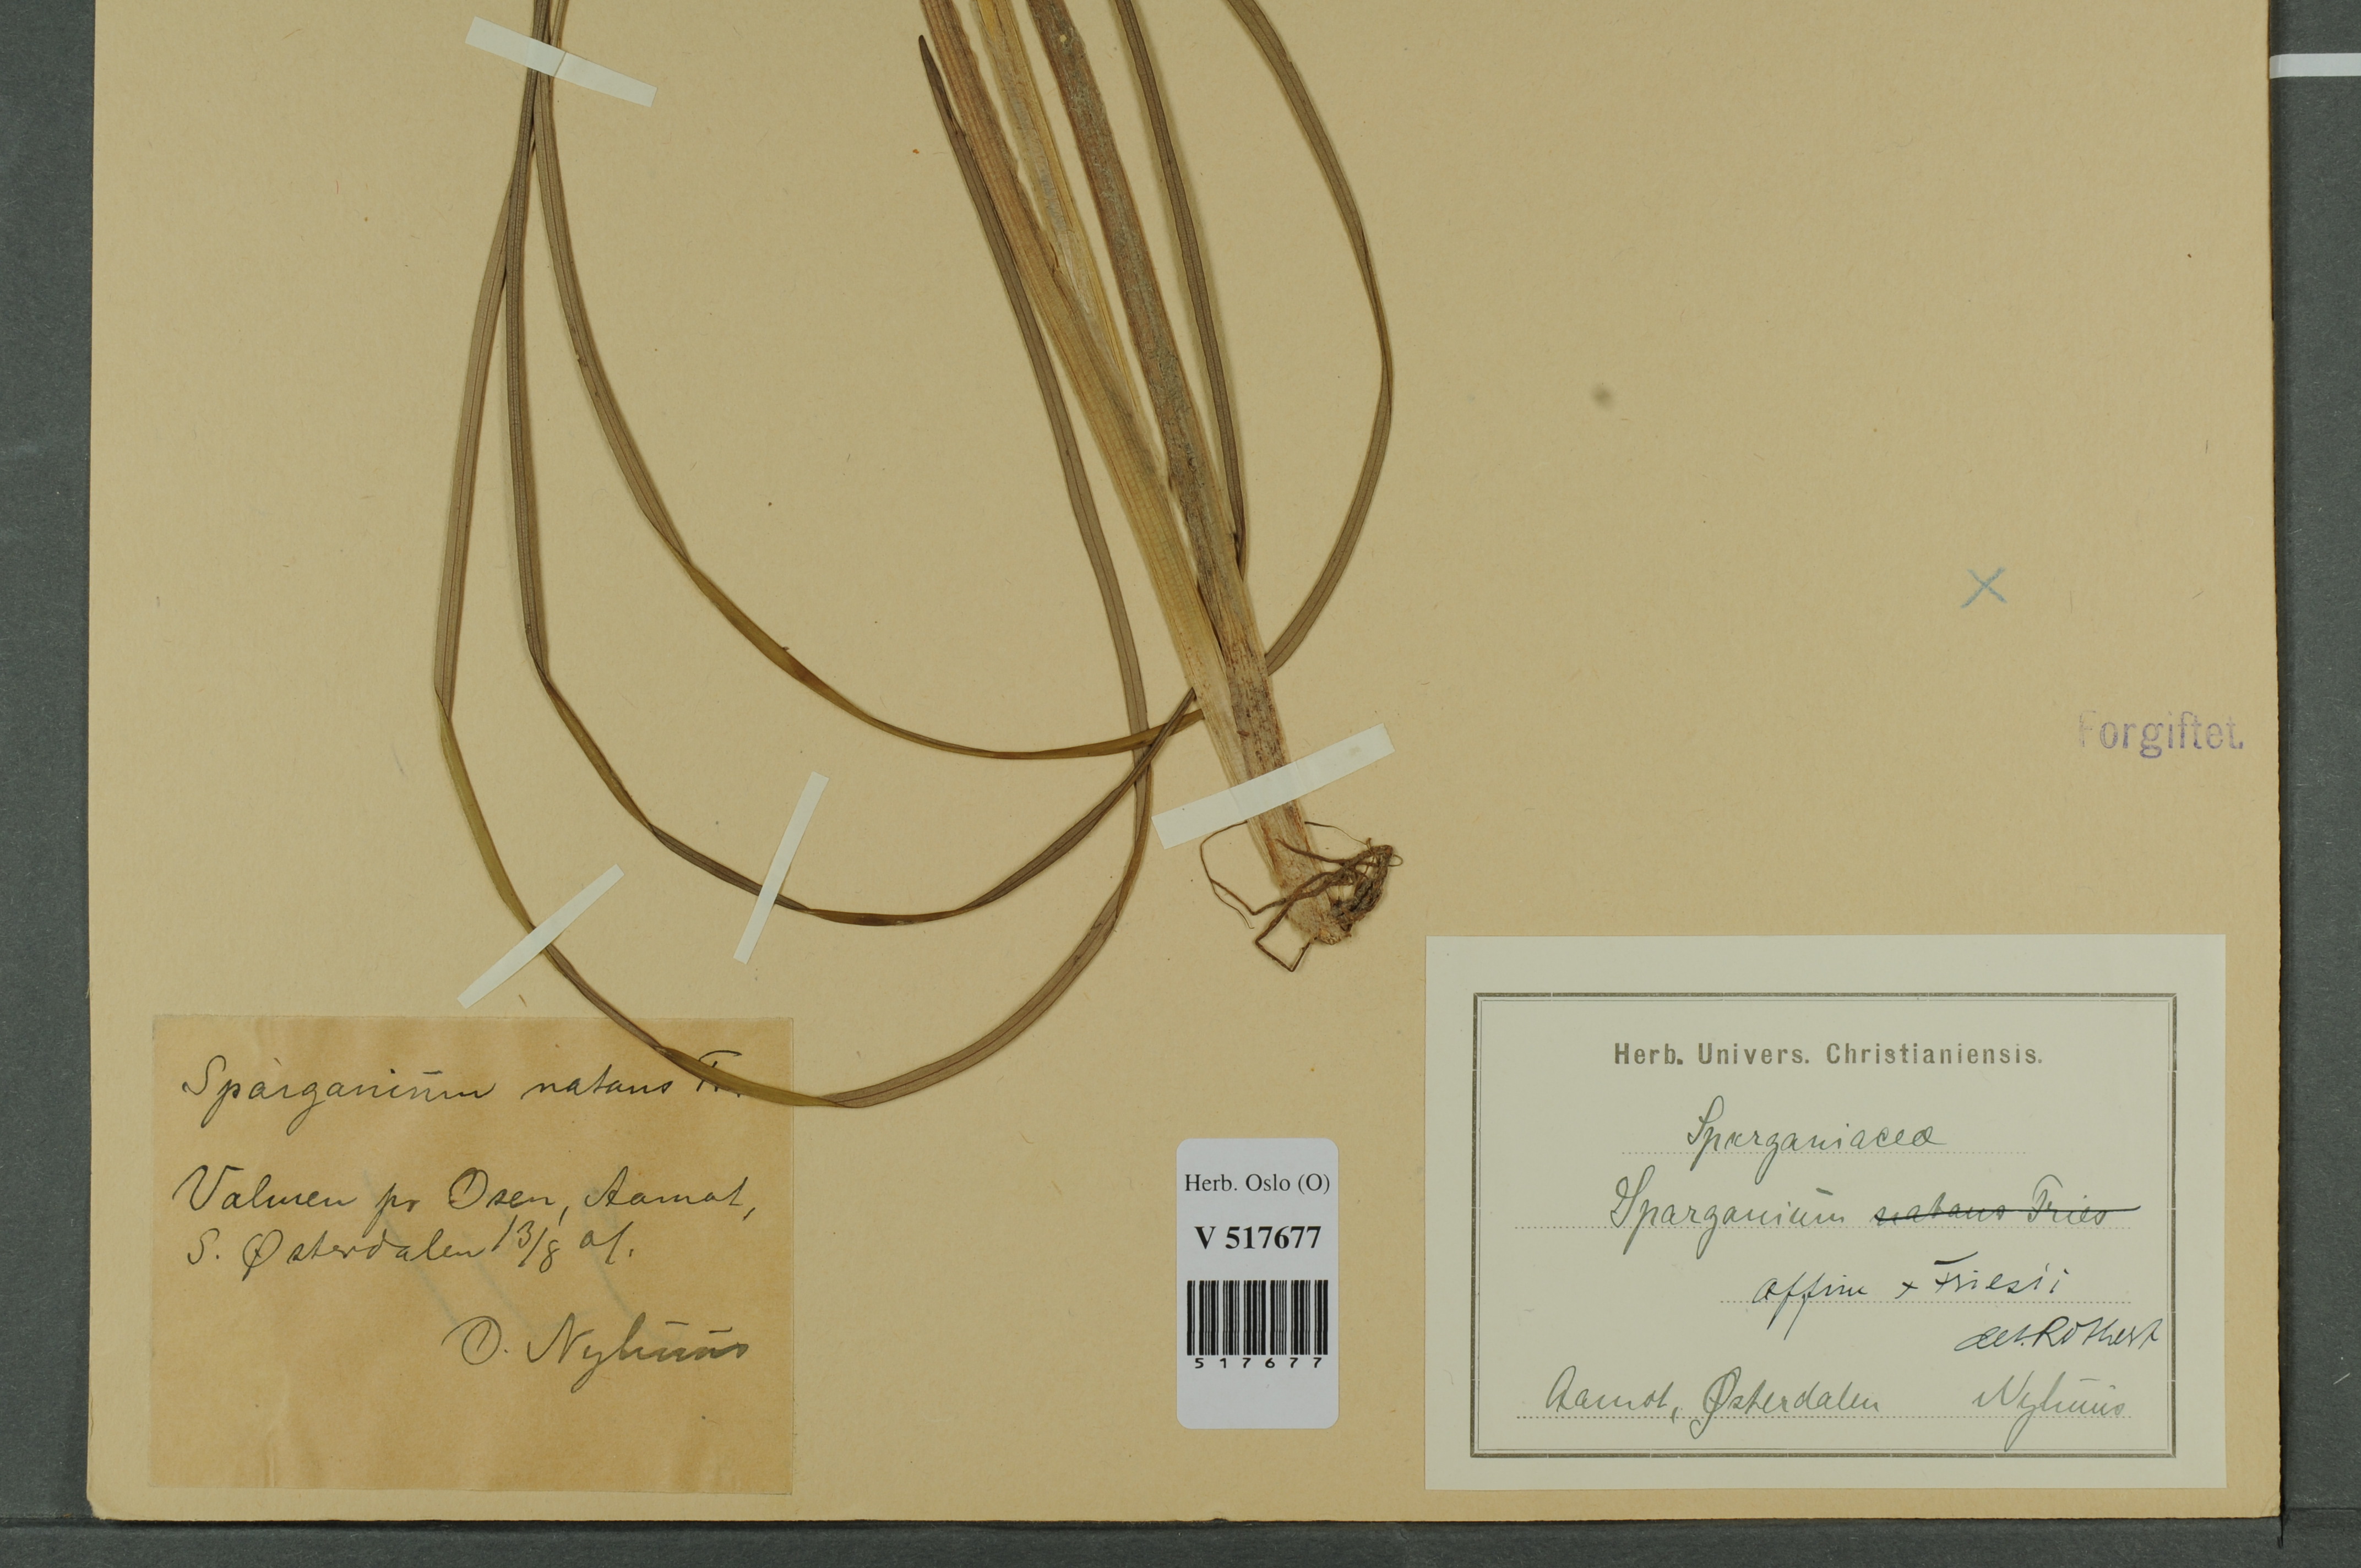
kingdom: Plantae
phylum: Tracheophyta
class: Liliopsida
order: Poales
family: Typhaceae
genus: Sparganium
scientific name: Sparganium
